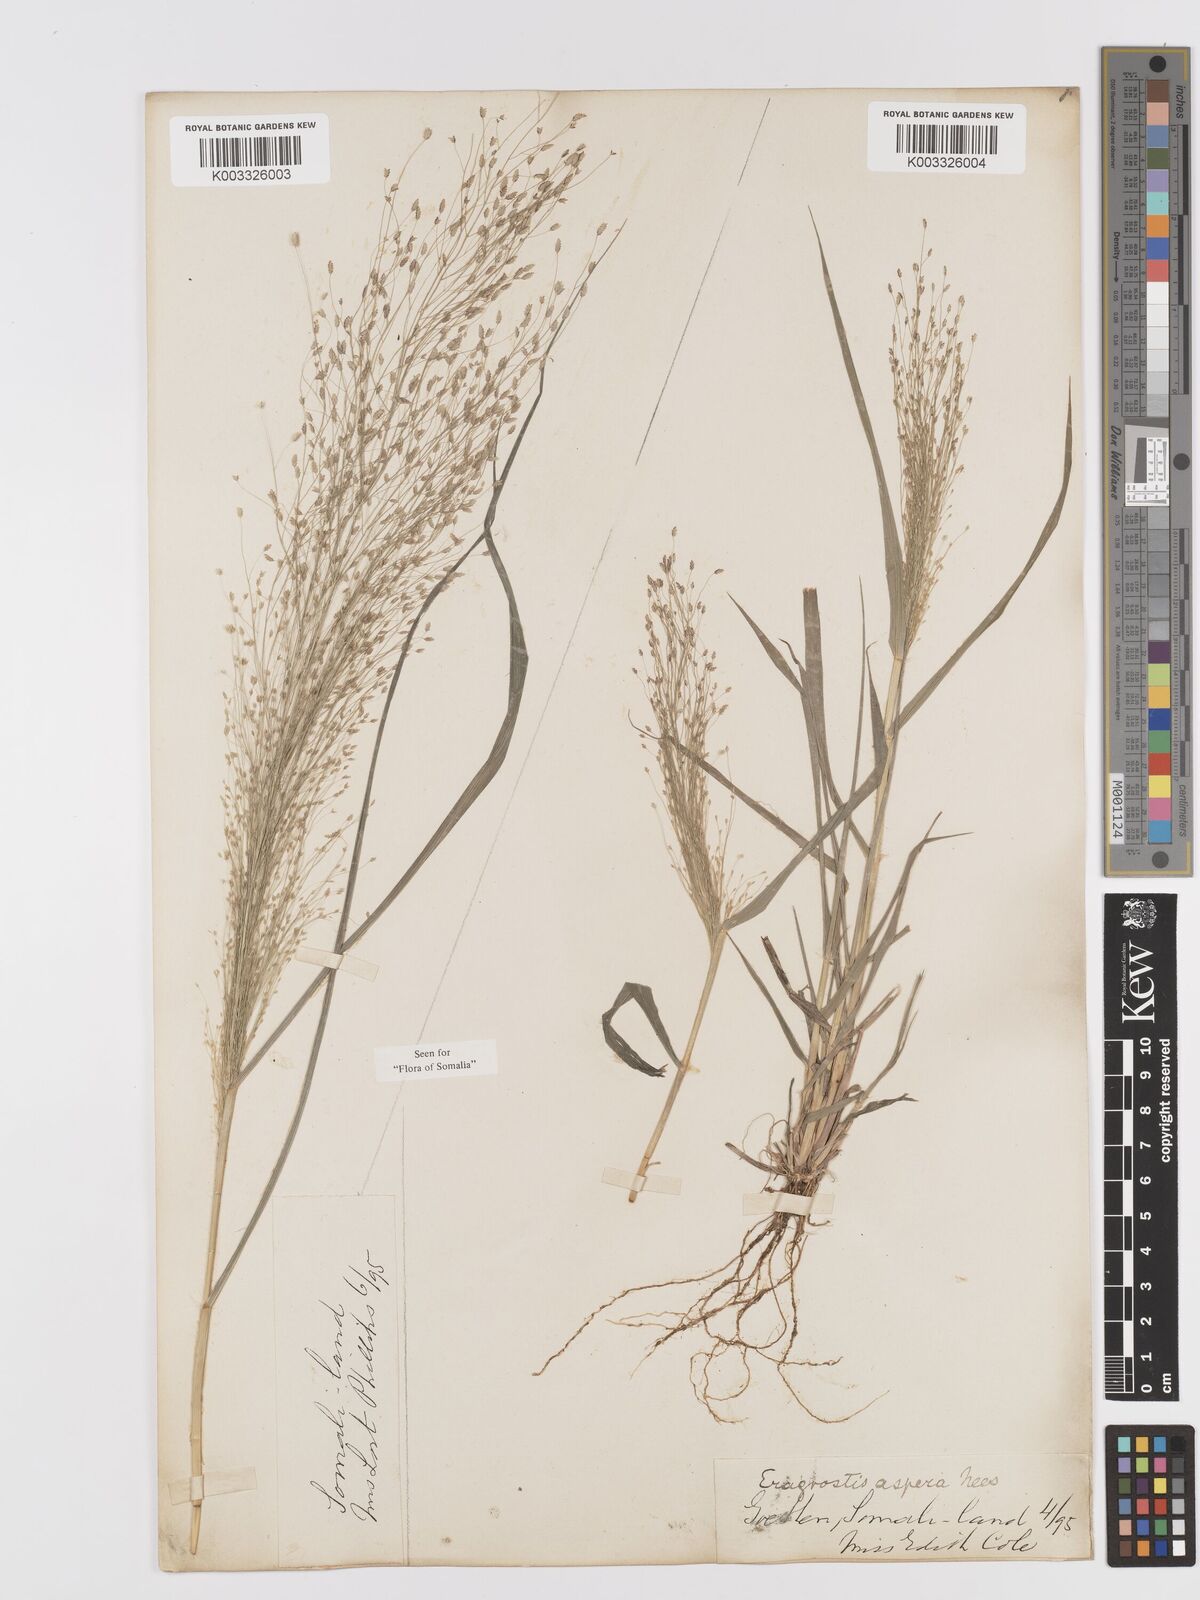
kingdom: Plantae
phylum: Tracheophyta
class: Liliopsida
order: Poales
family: Poaceae
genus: Eragrostis
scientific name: Eragrostis aspera
